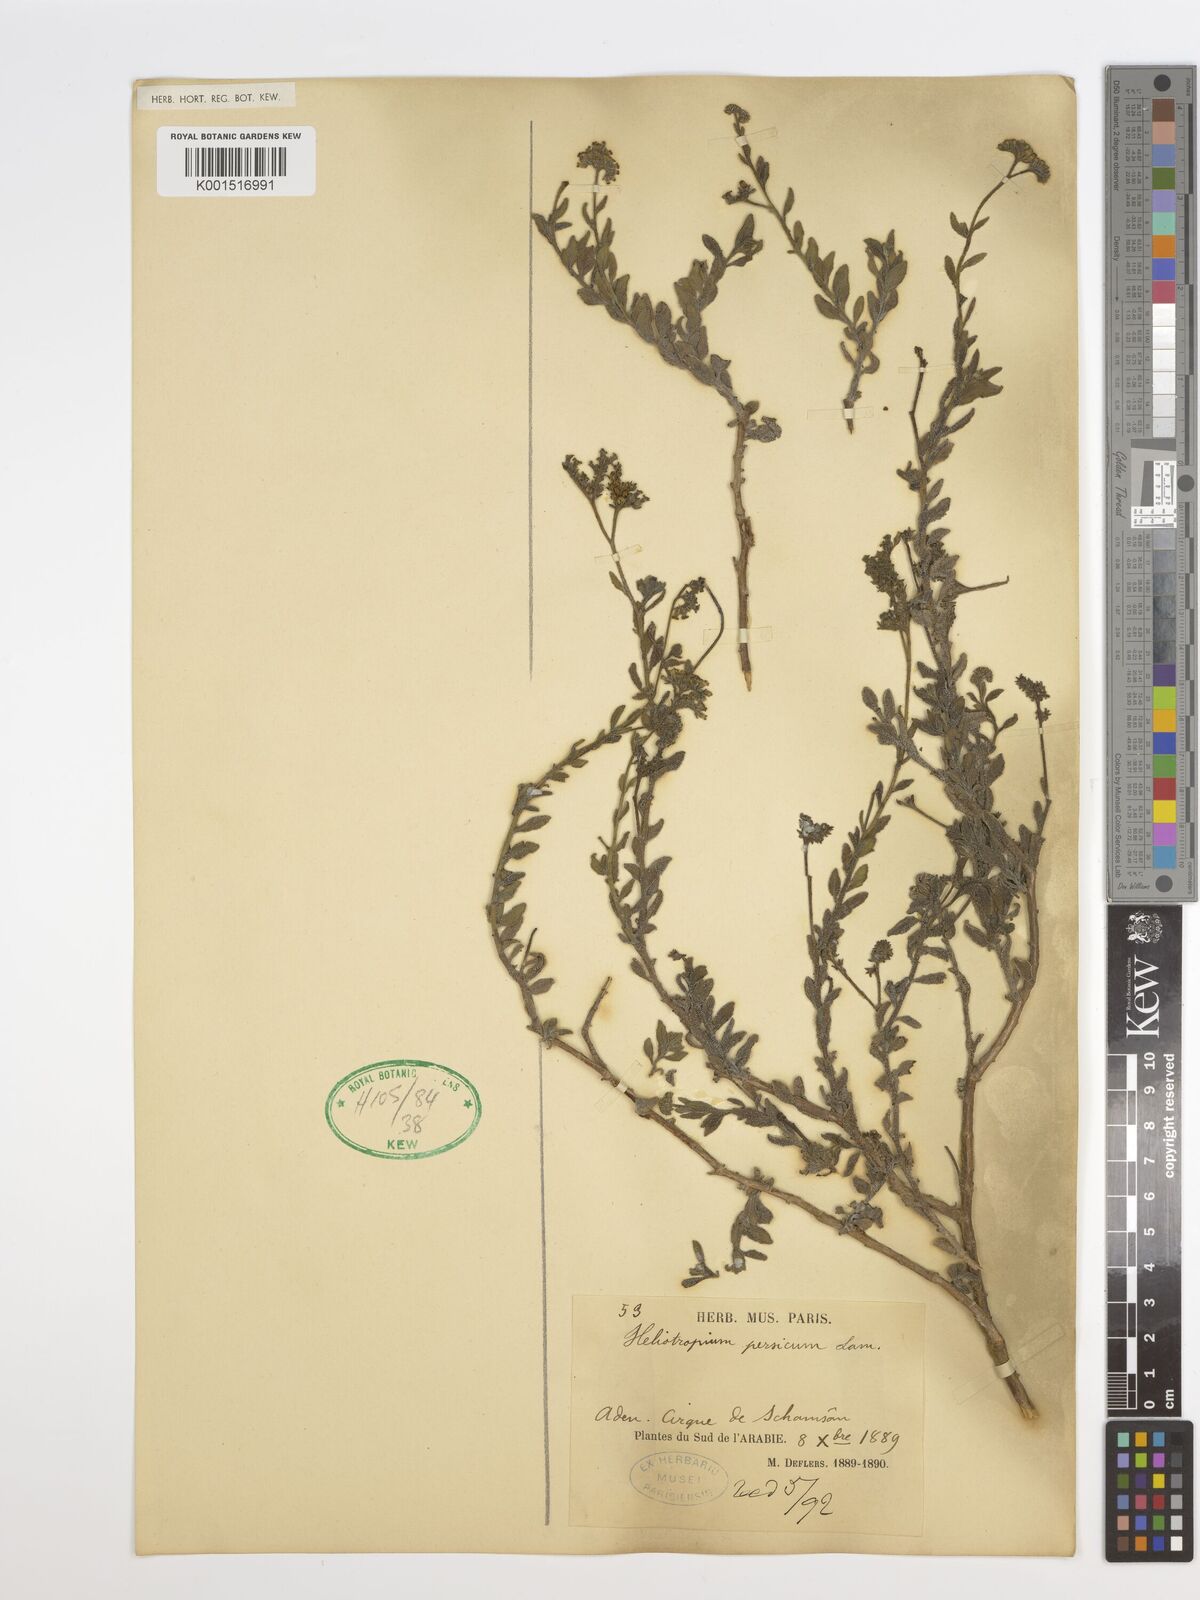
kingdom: Plantae
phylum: Tracheophyta
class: Magnoliopsida
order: Boraginales
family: Heliotropiaceae
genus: Heliotropium
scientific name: Heliotropium ramosissimum
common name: Wavy heliotrope
